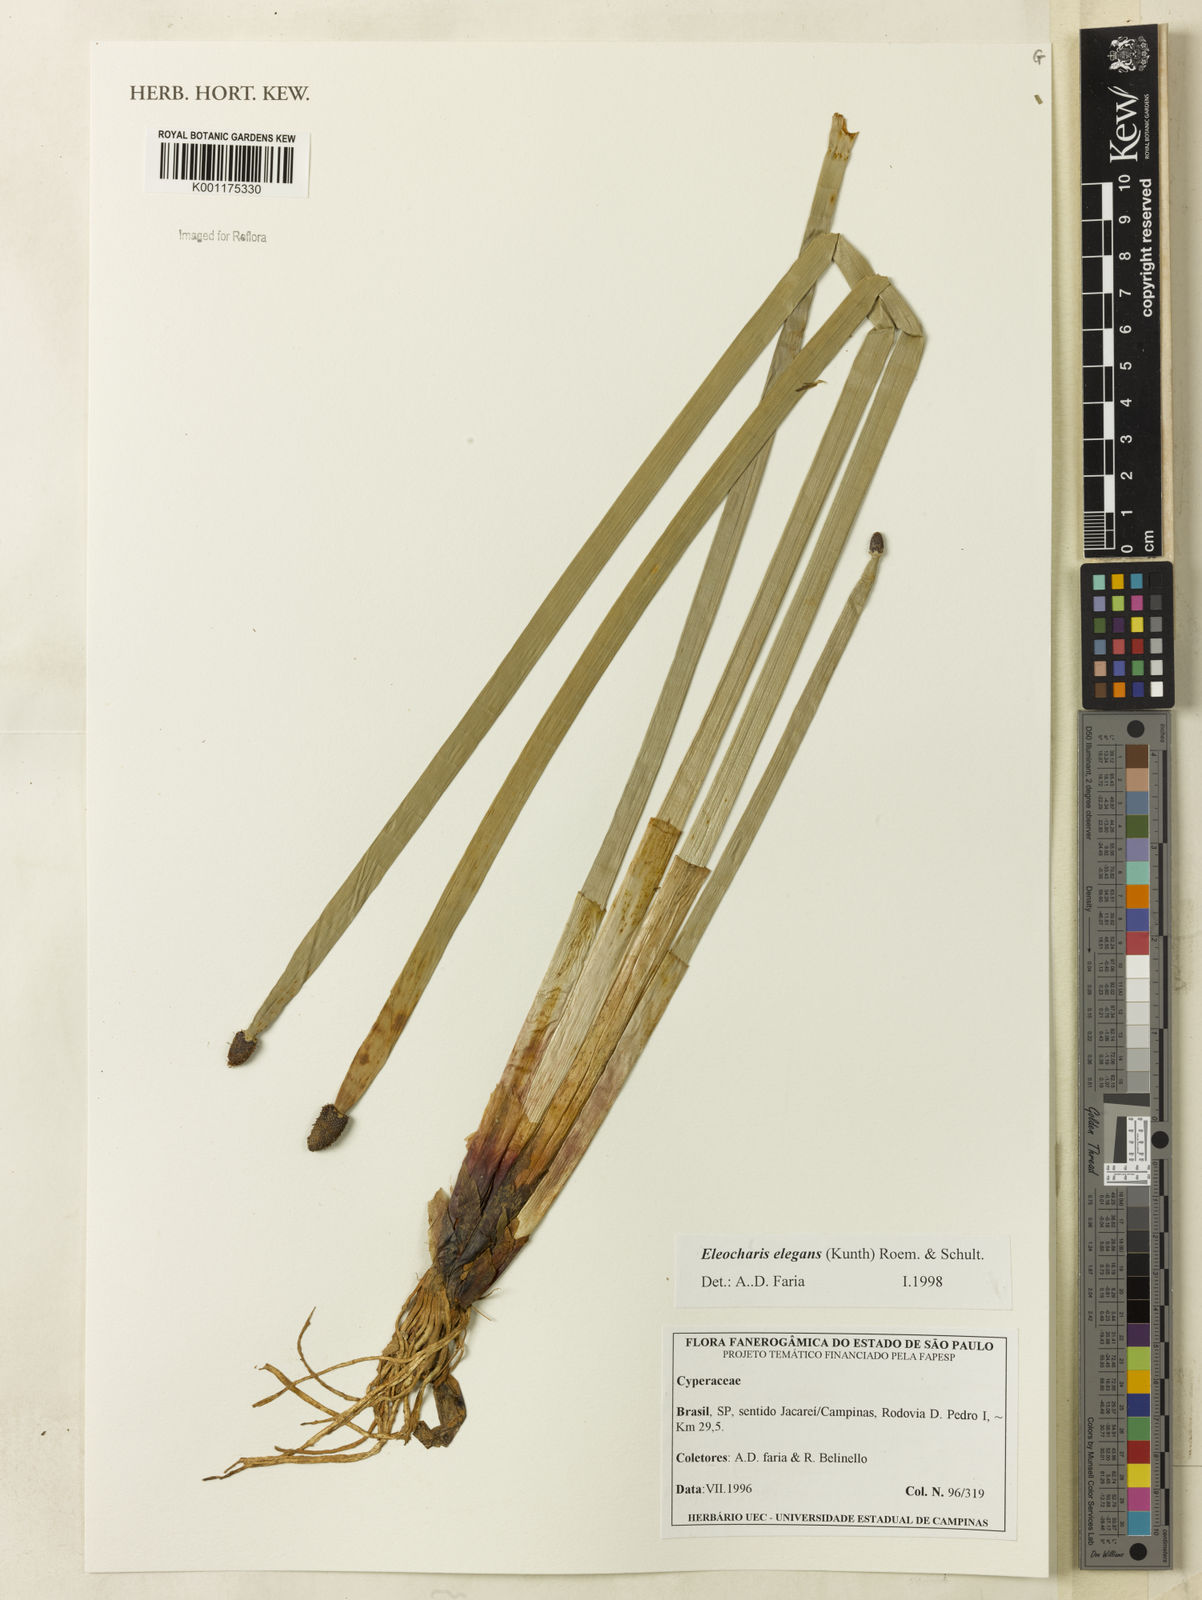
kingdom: Plantae
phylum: Tracheophyta
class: Liliopsida
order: Poales
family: Cyperaceae
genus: Eleocharis
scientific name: Eleocharis elegans
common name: Elegant spike-rush
